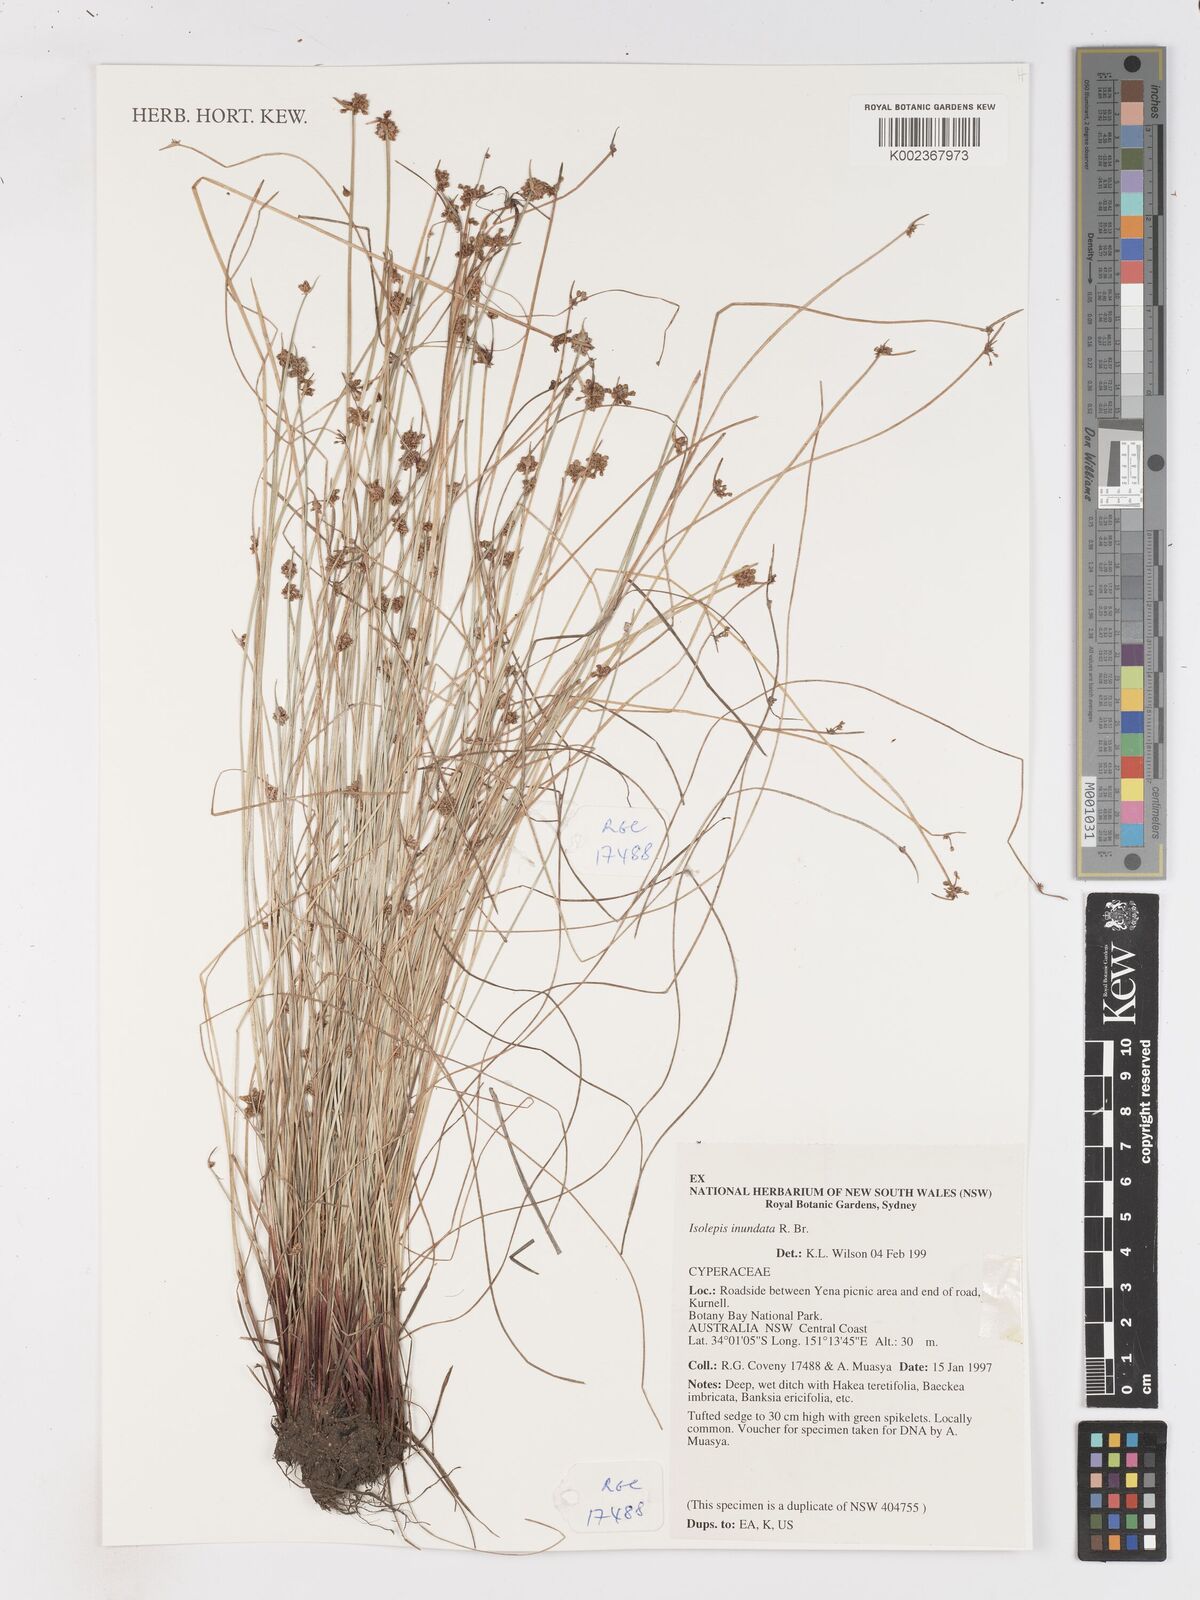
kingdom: Plantae
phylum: Tracheophyta
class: Liliopsida
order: Poales
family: Cyperaceae
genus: Isolepis
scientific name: Isolepis inundata
